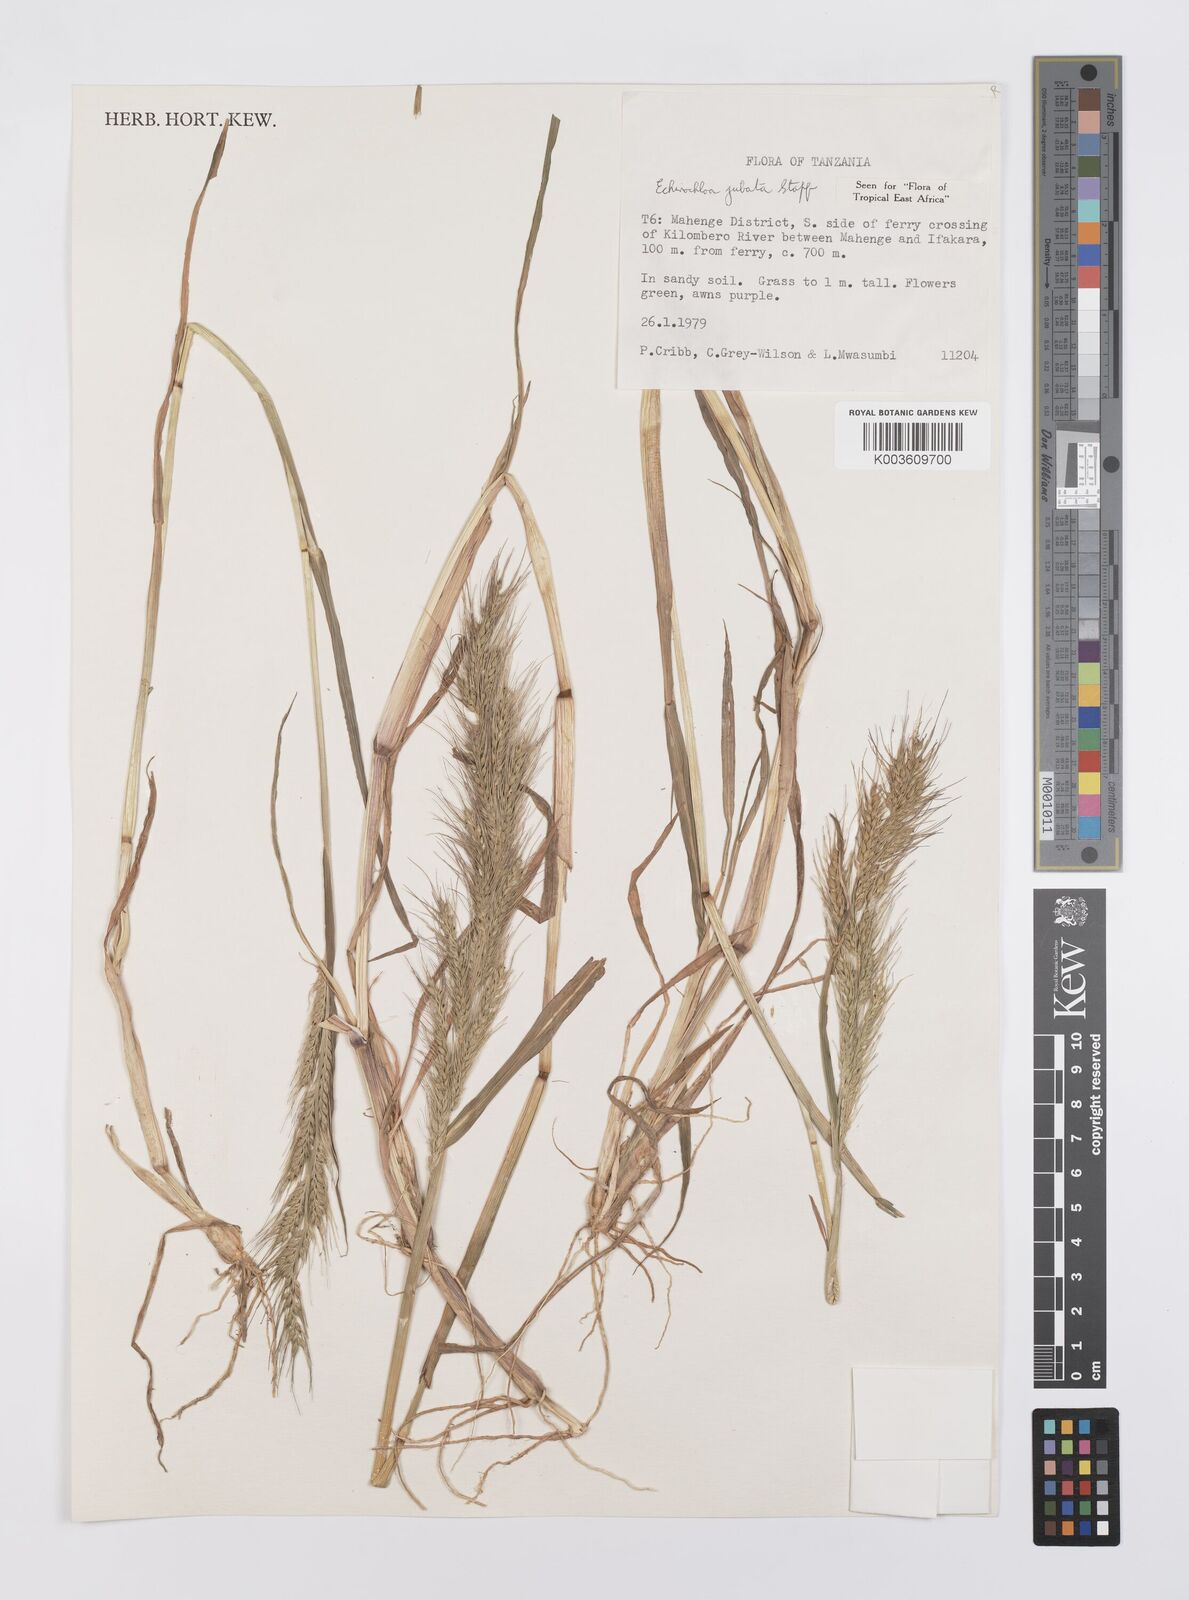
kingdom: Plantae
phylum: Tracheophyta
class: Liliopsida
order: Poales
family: Poaceae
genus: Echinochloa
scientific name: Echinochloa jubata
